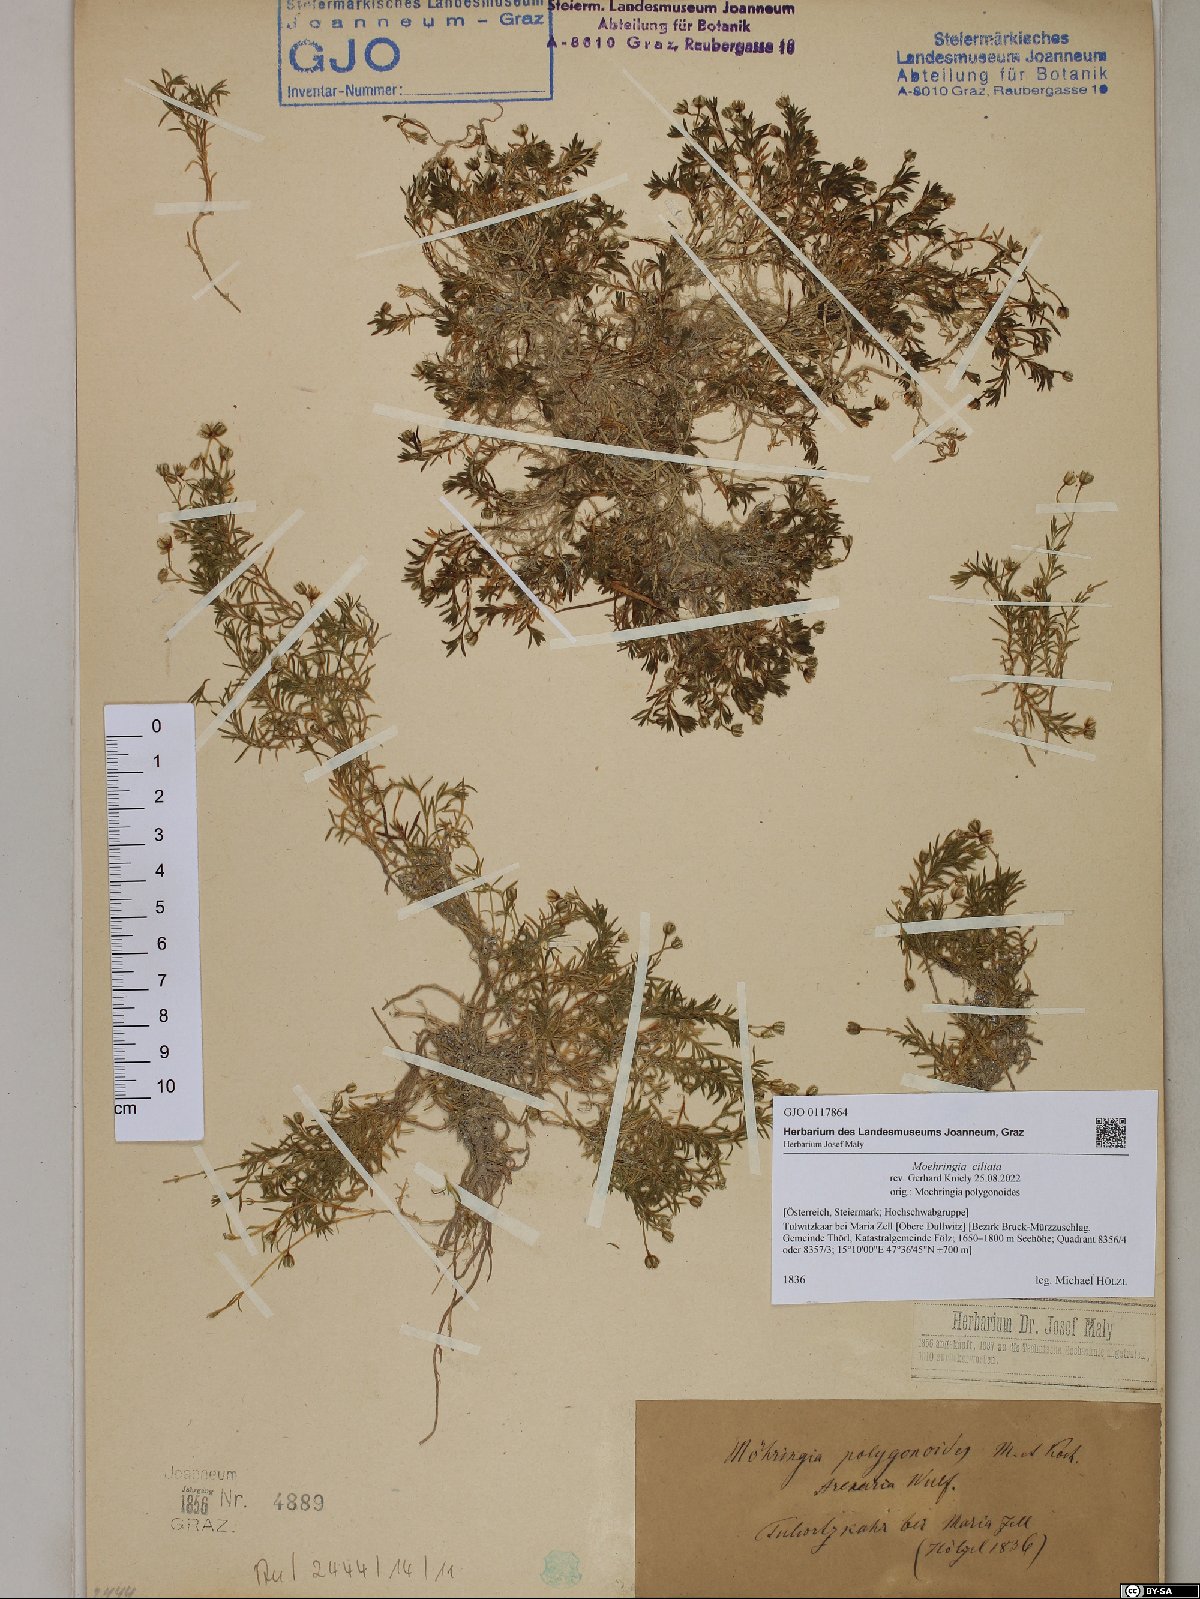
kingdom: Plantae
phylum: Tracheophyta
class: Magnoliopsida
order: Caryophyllales
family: Caryophyllaceae
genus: Moehringia
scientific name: Moehringia ciliata
